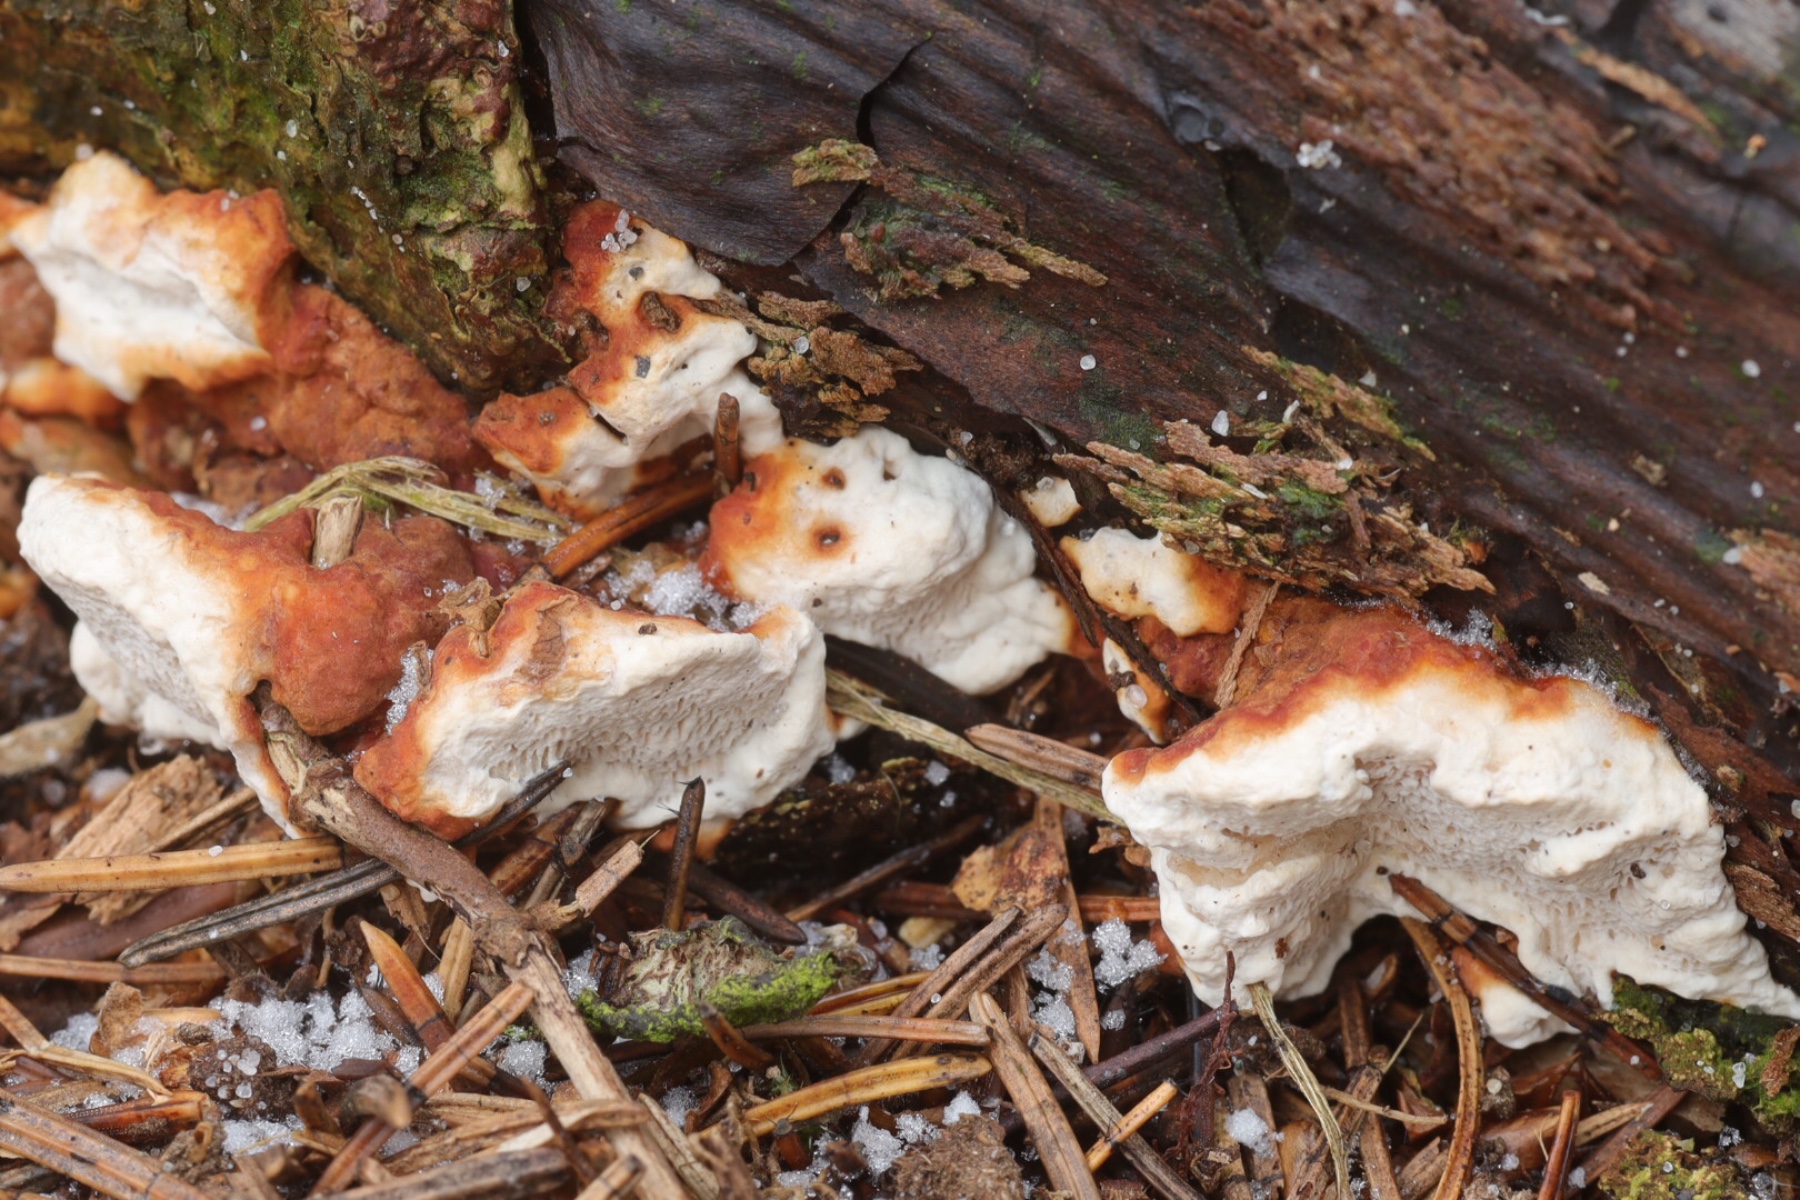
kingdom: Fungi
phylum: Basidiomycota
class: Agaricomycetes
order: Russulales
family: Bondarzewiaceae
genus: Heterobasidion
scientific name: Heterobasidion annosum
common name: almindelig rodfordærver
